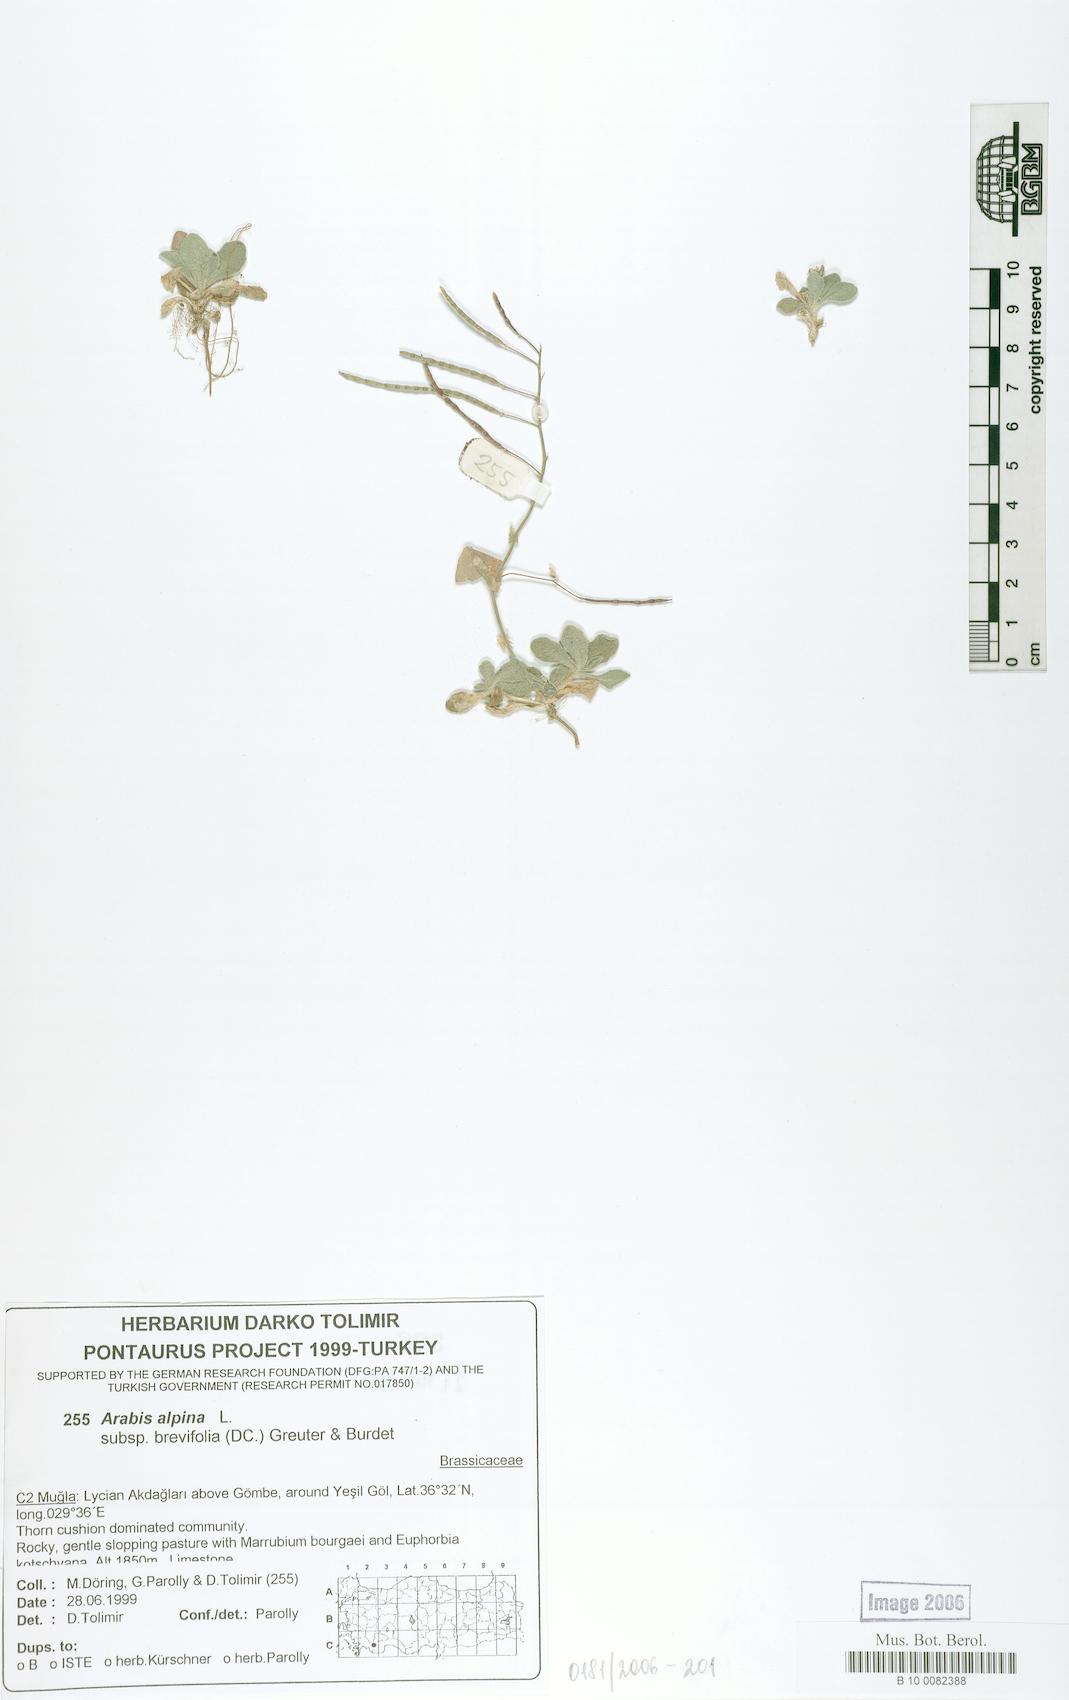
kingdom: Plantae
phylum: Tracheophyta
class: Magnoliopsida
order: Brassicales
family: Brassicaceae
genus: Arabis
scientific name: Arabis caucasica
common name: Gray rockcress
